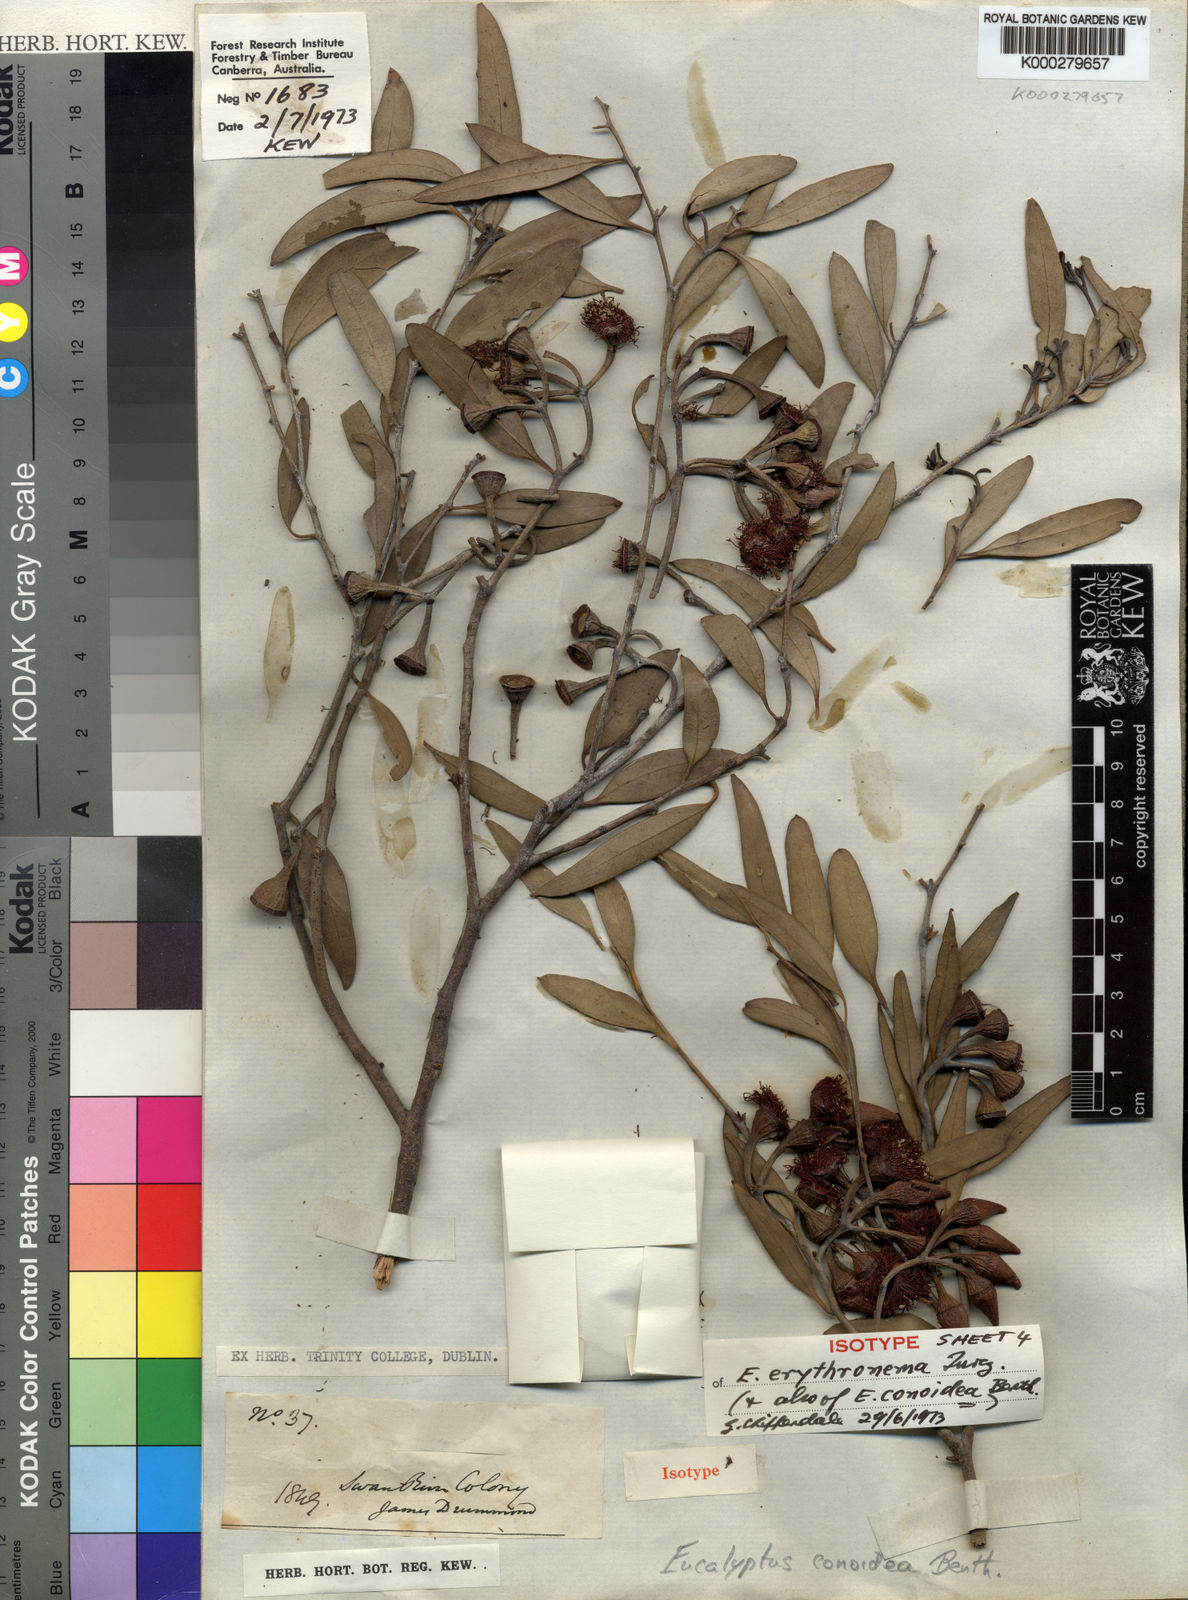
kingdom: Plantae
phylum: Tracheophyta
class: Magnoliopsida
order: Myrtales
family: Myrtaceae
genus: Eucalyptus
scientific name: Eucalyptus erythronema
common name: Red-flowered mallee
